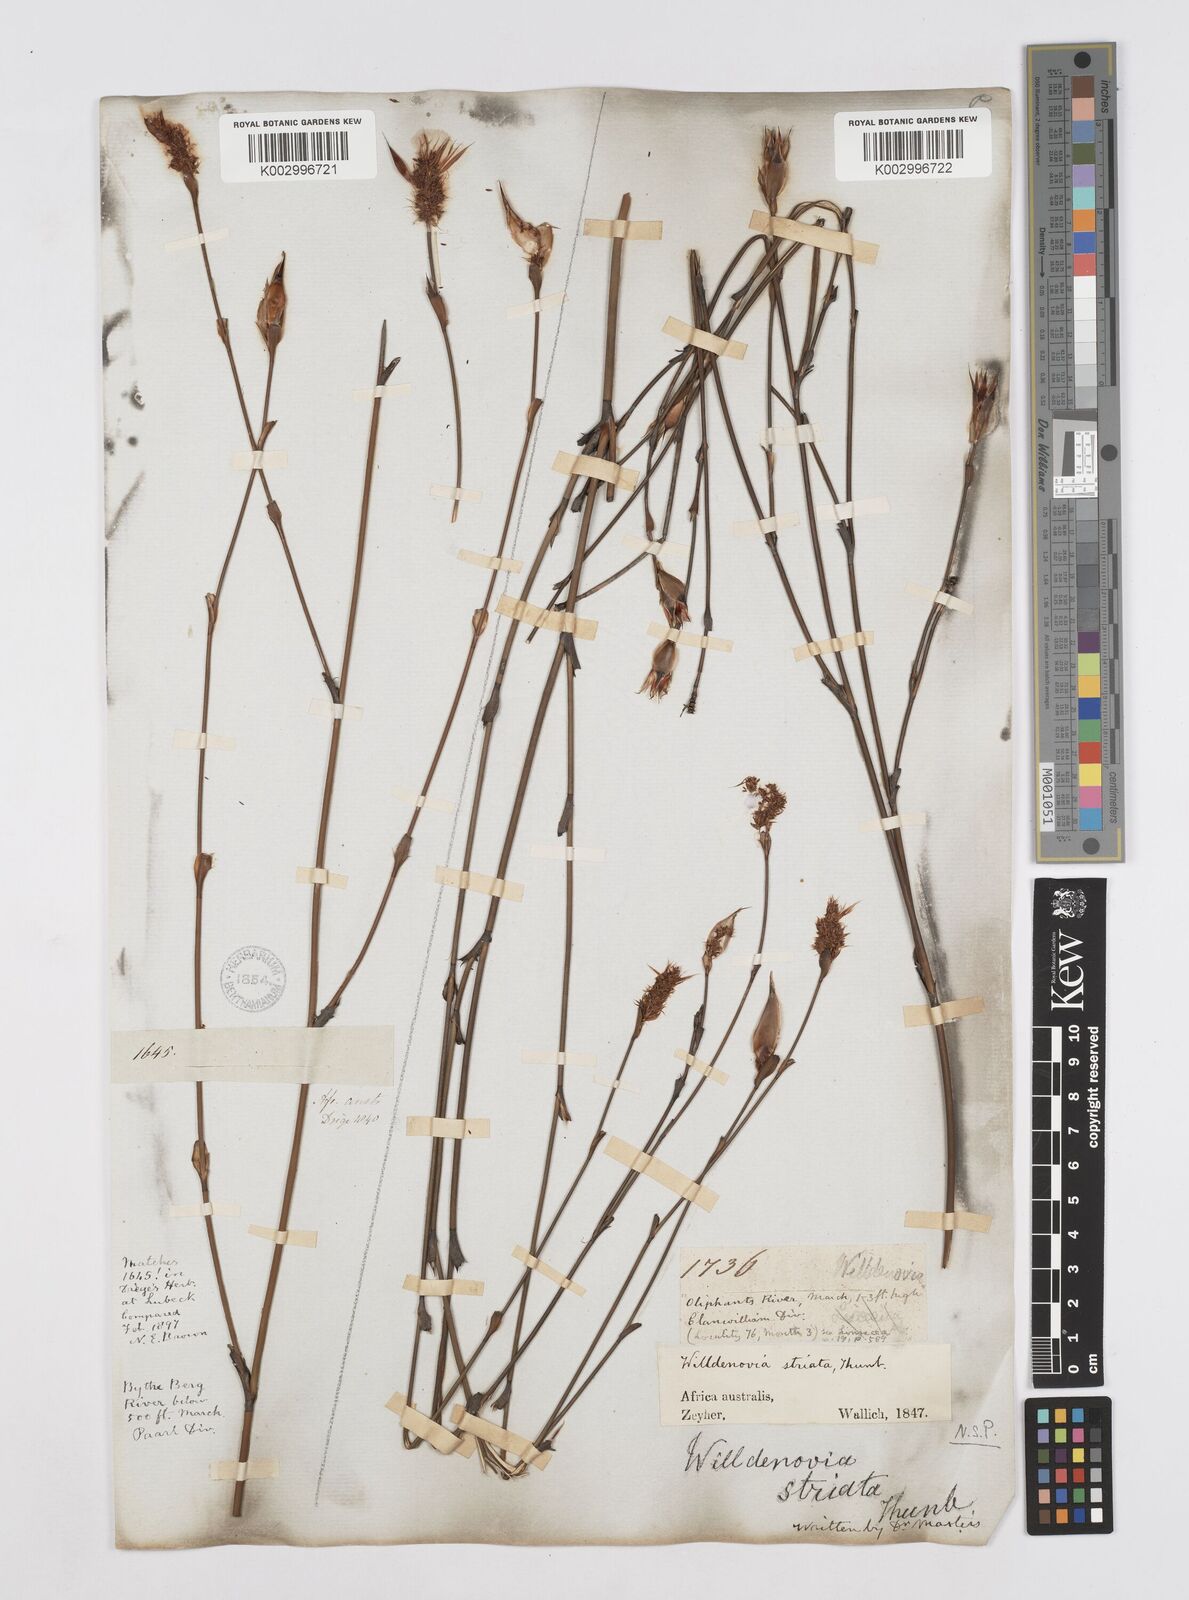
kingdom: Plantae
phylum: Tracheophyta
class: Liliopsida
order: Poales
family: Restionaceae
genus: Willdenowia
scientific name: Willdenowia incurvata
